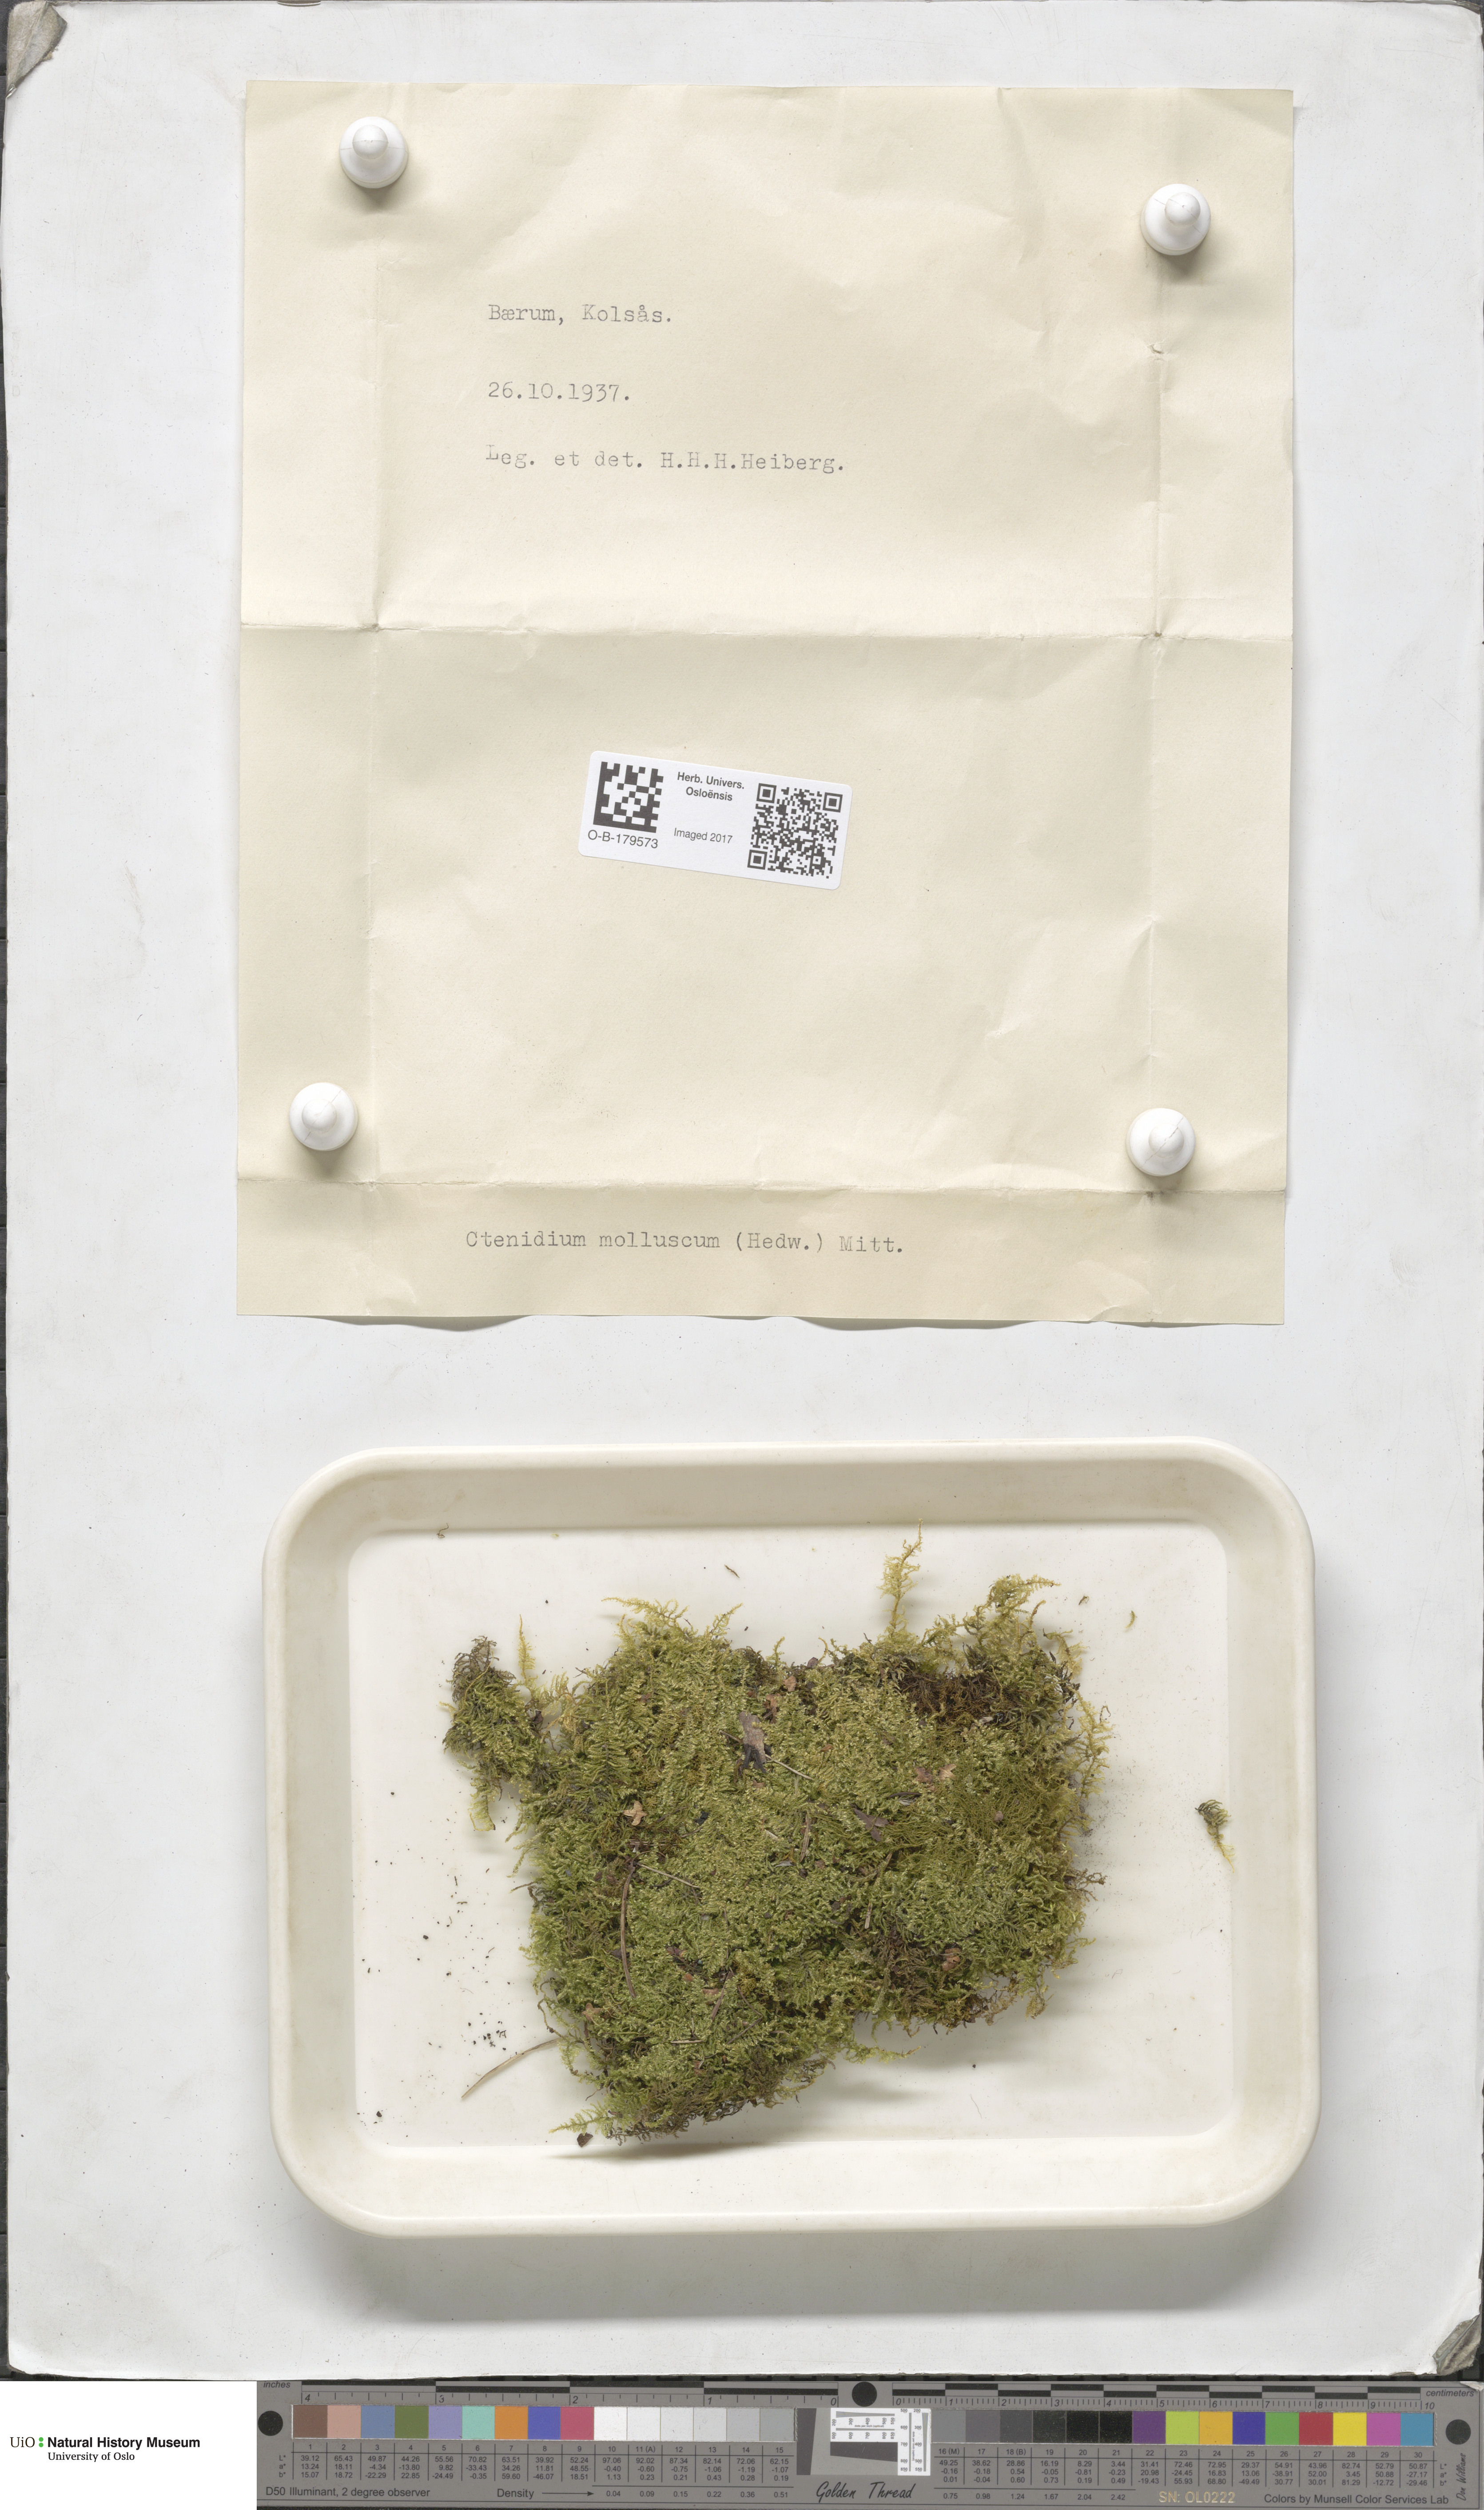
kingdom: Plantae
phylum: Bryophyta
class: Bryopsida
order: Hypnales
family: Myuriaceae
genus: Ctenidium
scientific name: Ctenidium molluscum
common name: Chalk comb-moss
